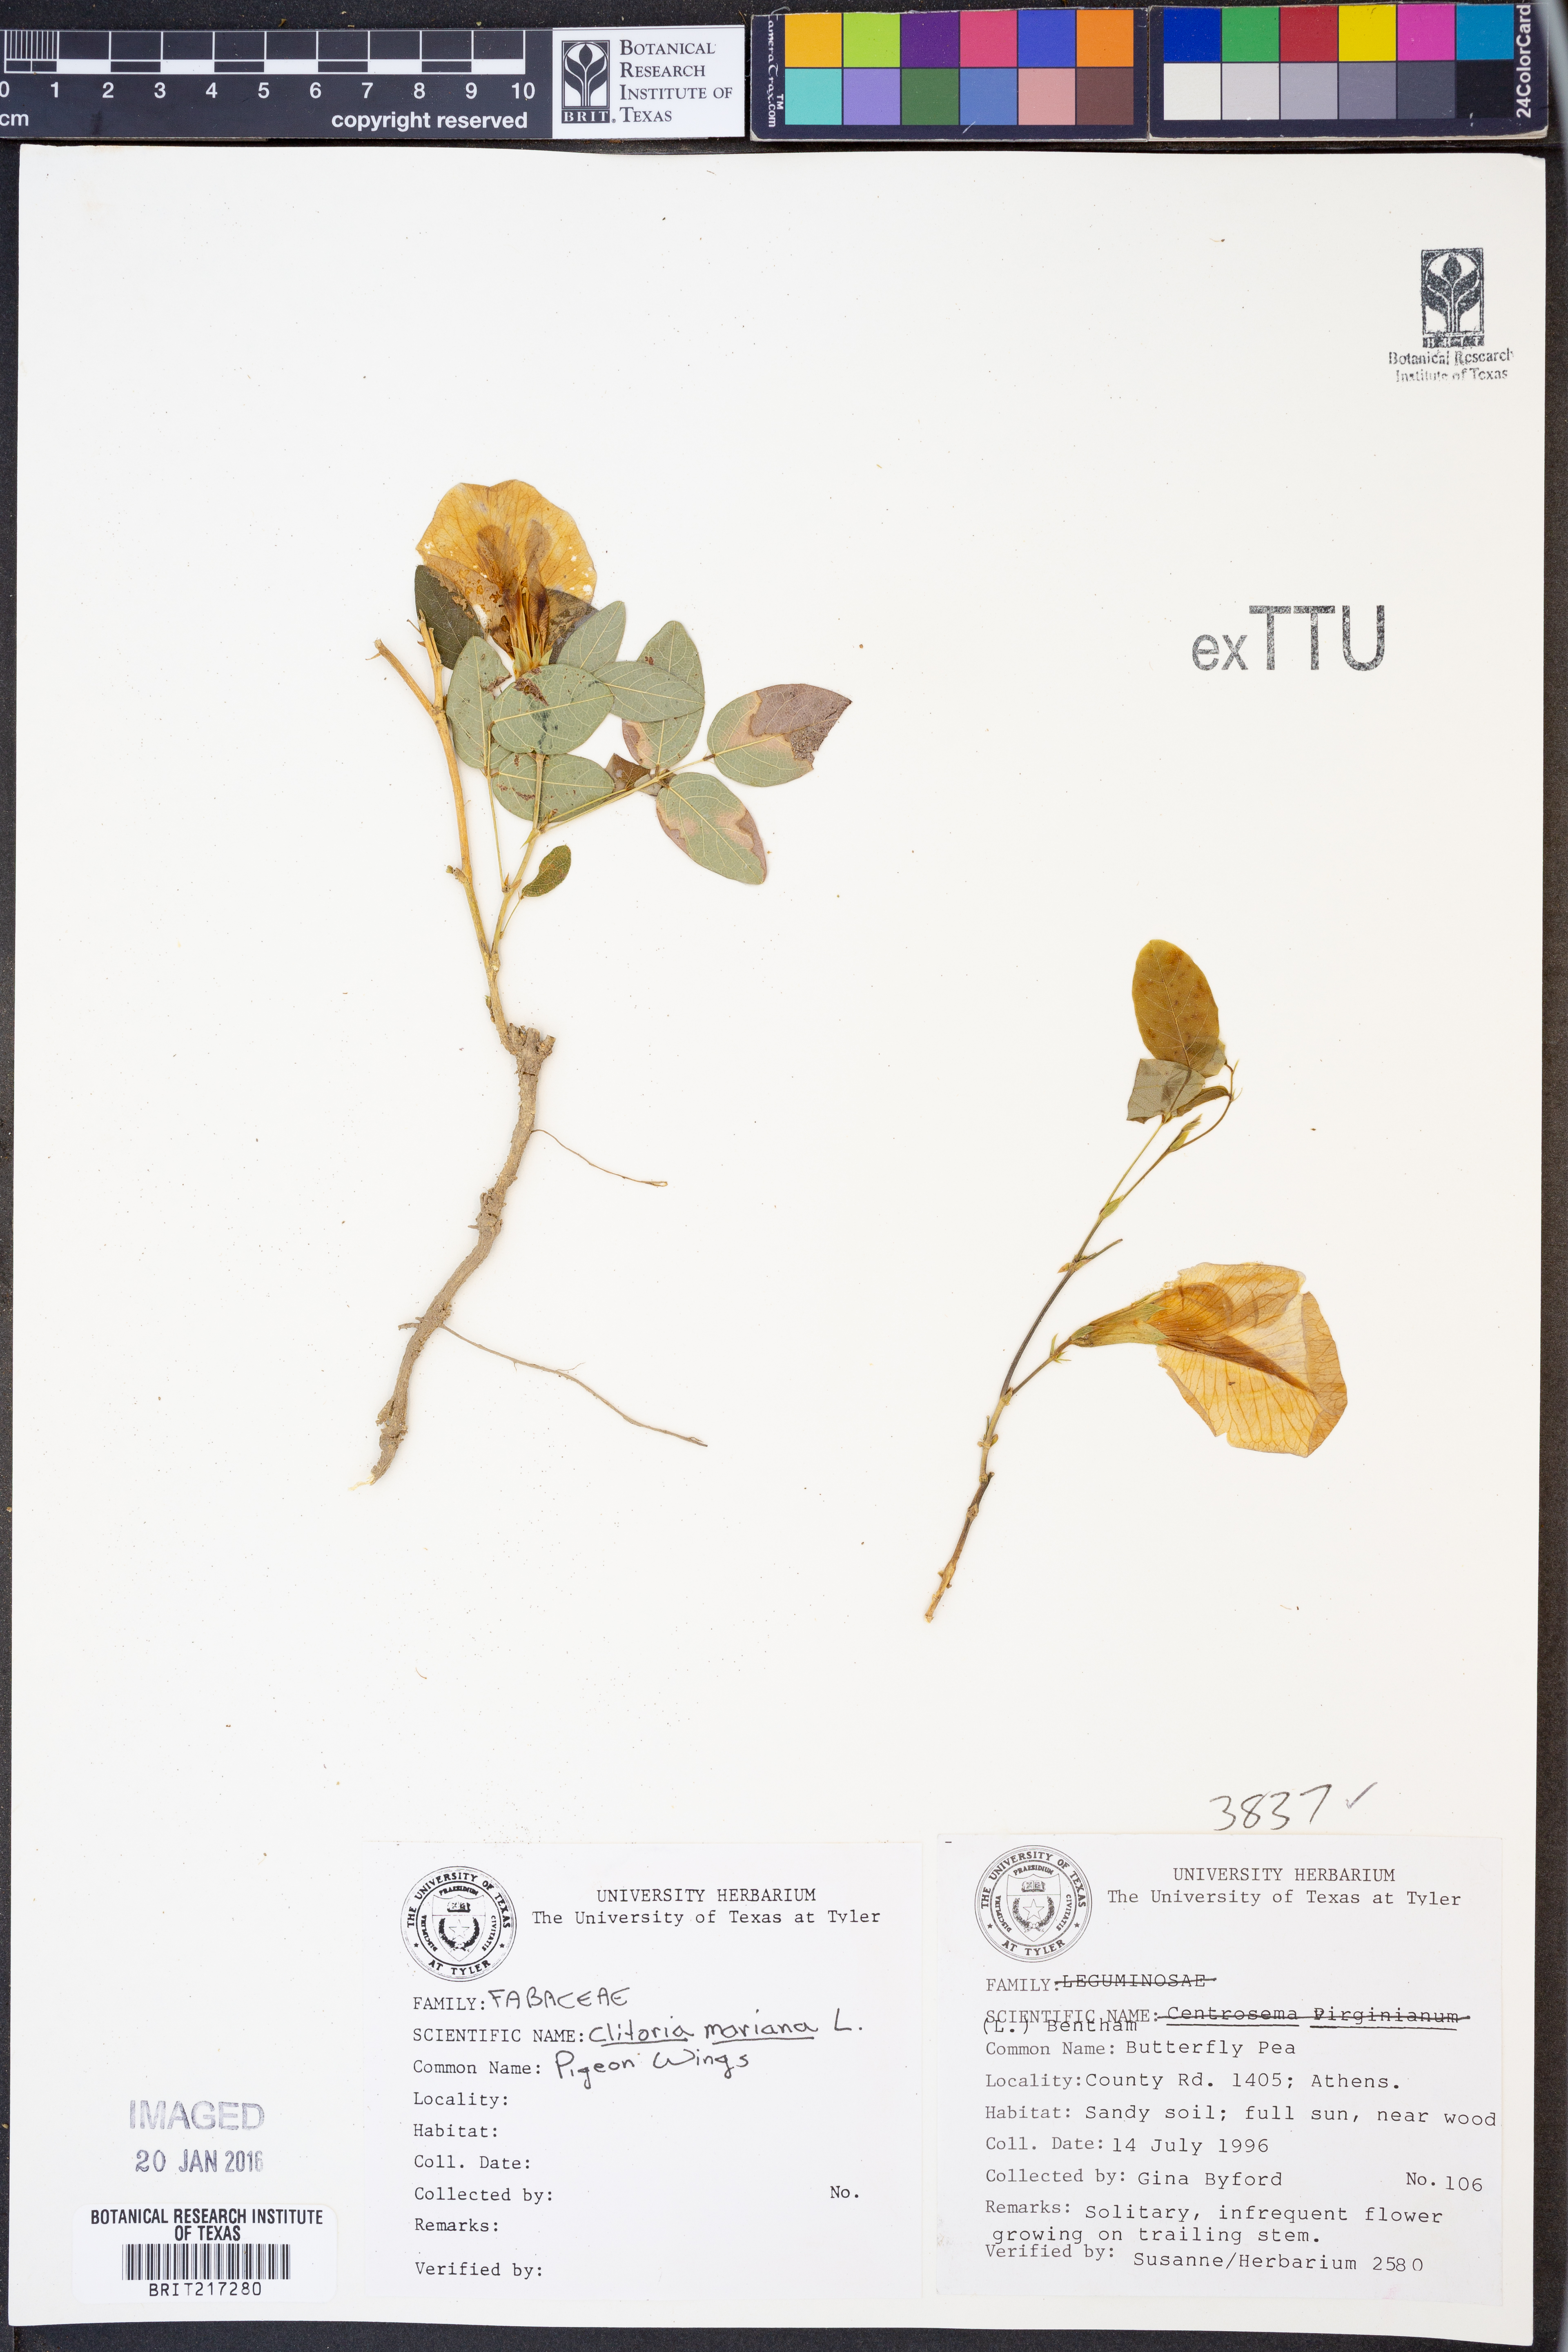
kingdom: Plantae
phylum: Tracheophyta
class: Magnoliopsida
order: Fabales
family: Fabaceae
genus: Clitoria
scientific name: Clitoria mariana
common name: Butterfly-pea
